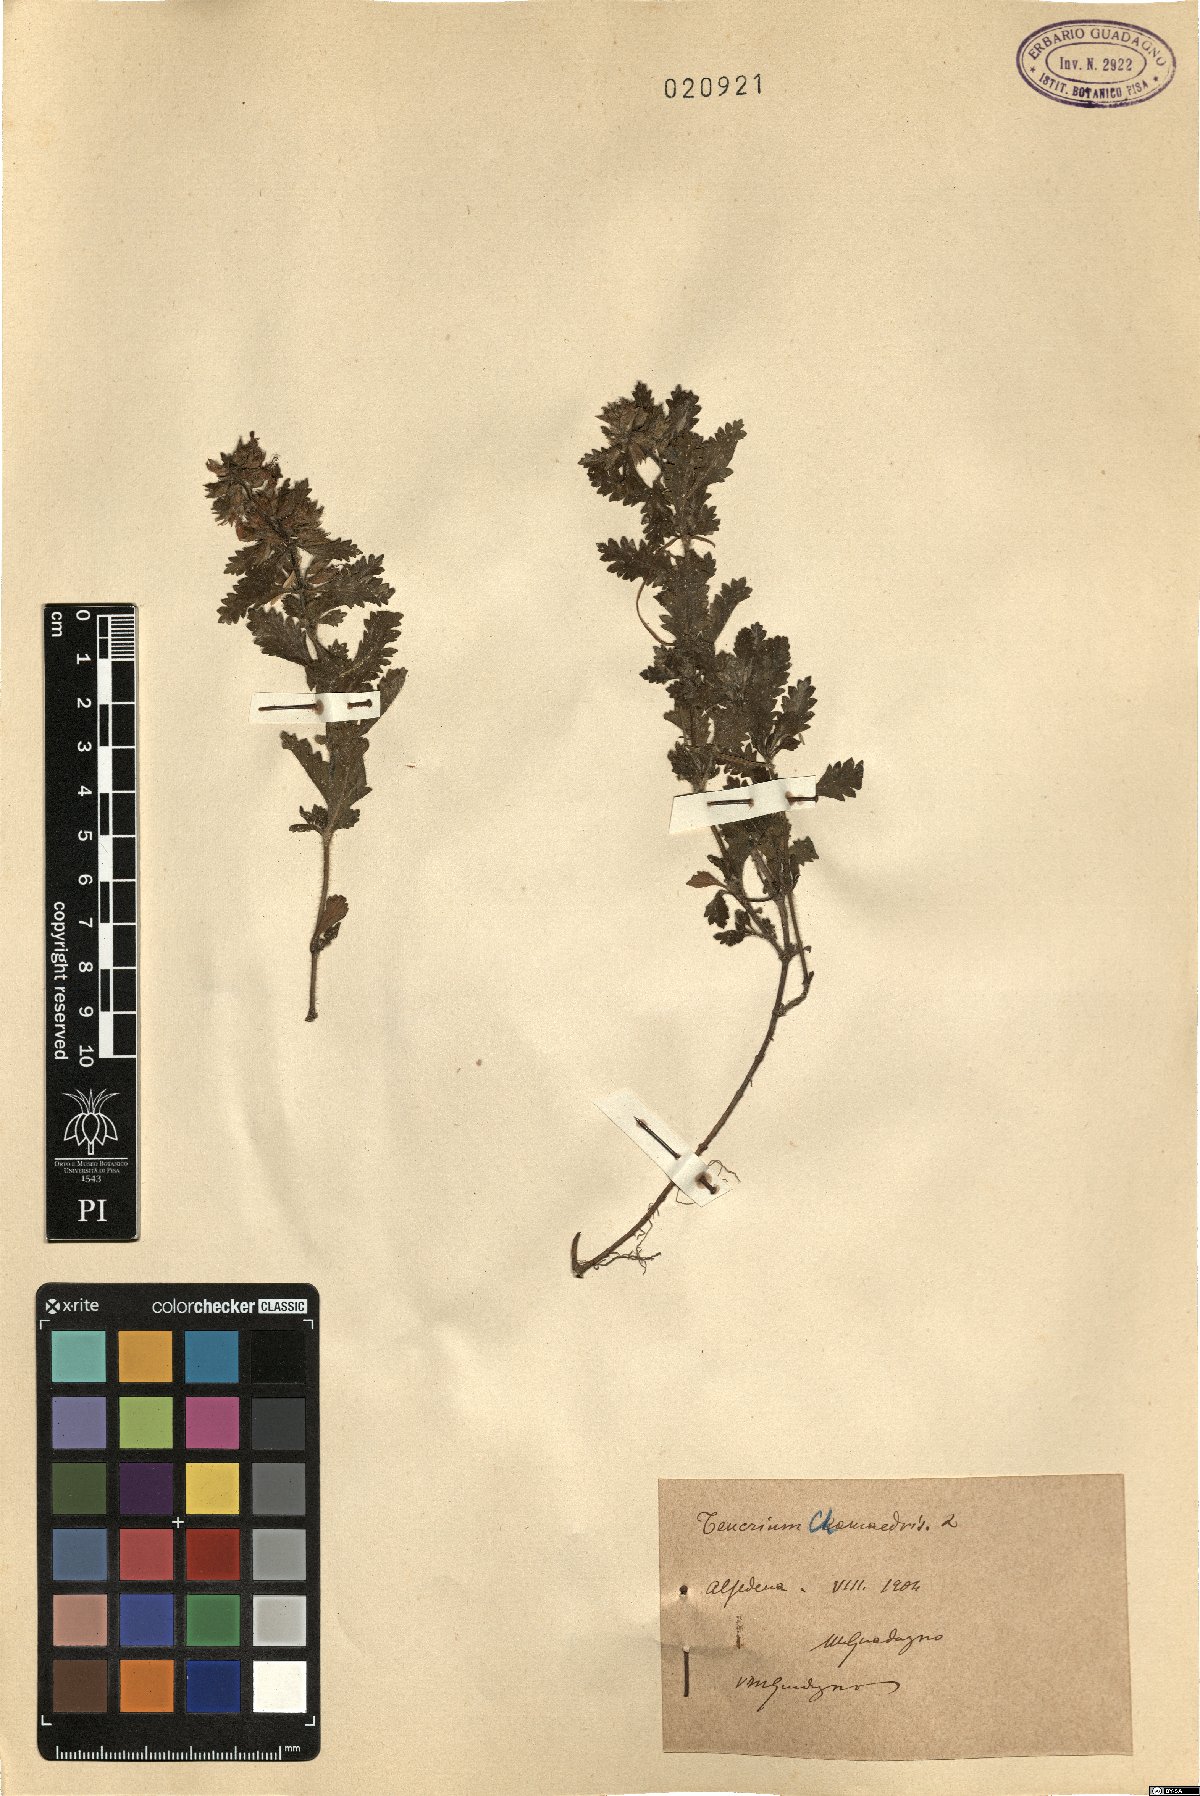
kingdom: Plantae
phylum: Tracheophyta
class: Magnoliopsida
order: Lamiales
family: Lamiaceae
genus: Teucrium
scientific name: Teucrium chamaedrys
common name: Wall germander
